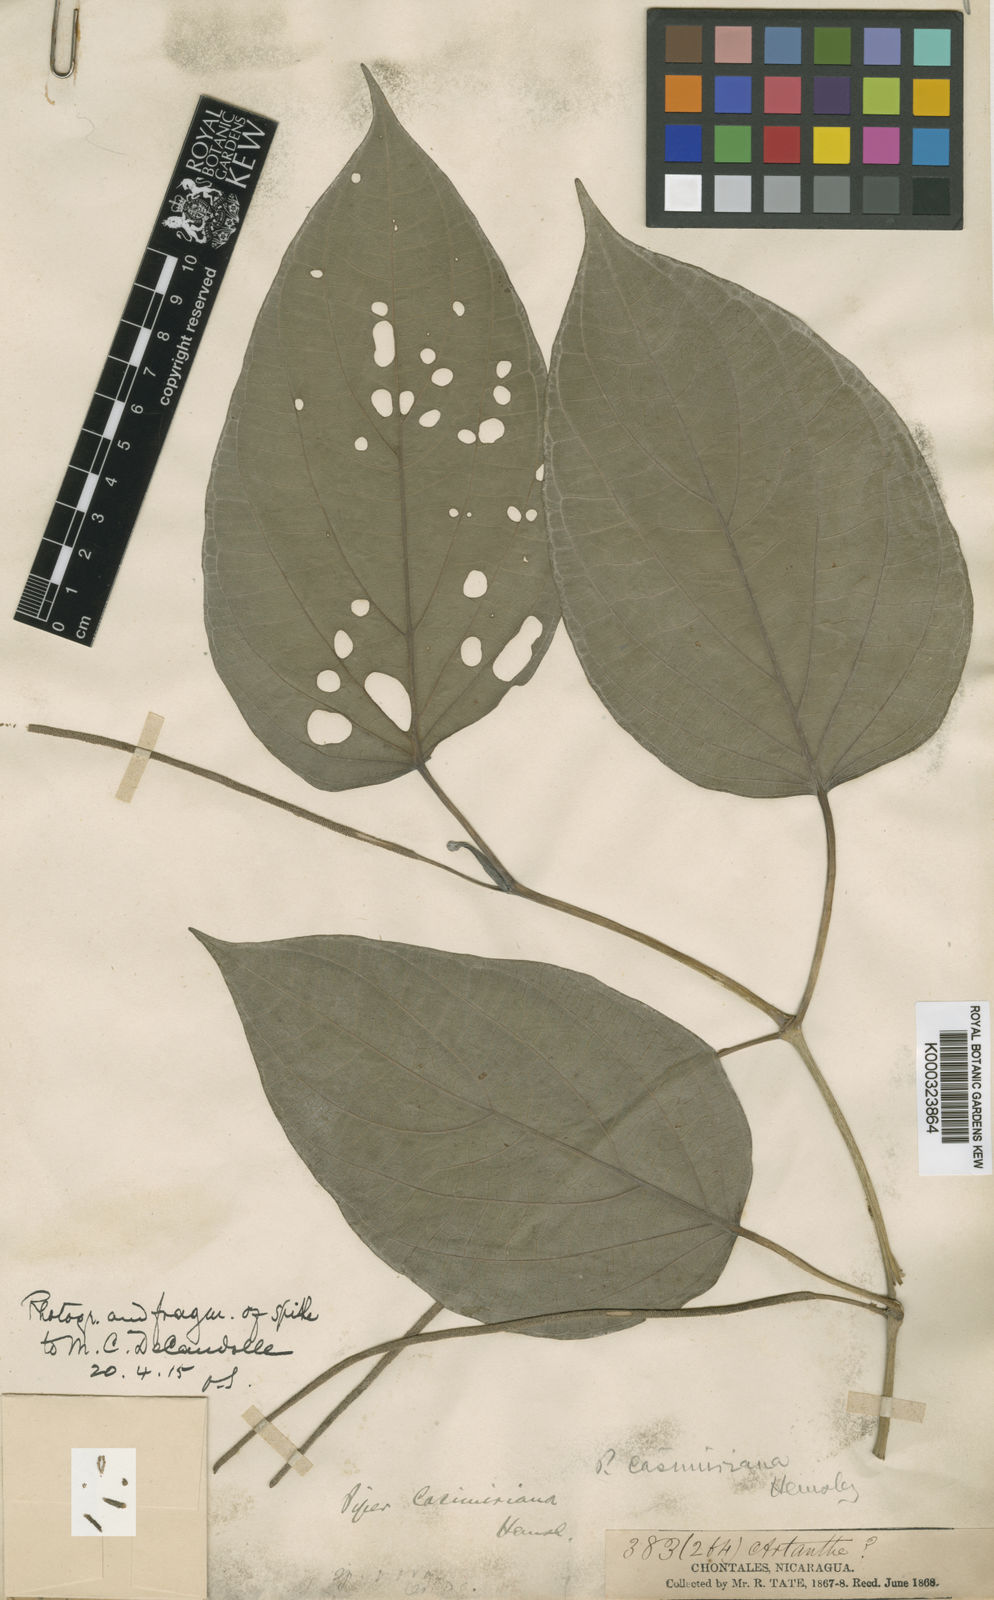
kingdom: Plantae
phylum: Tracheophyta
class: Magnoliopsida
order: Piperales
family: Piperaceae
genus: Piper
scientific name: Piper schiedeanum
